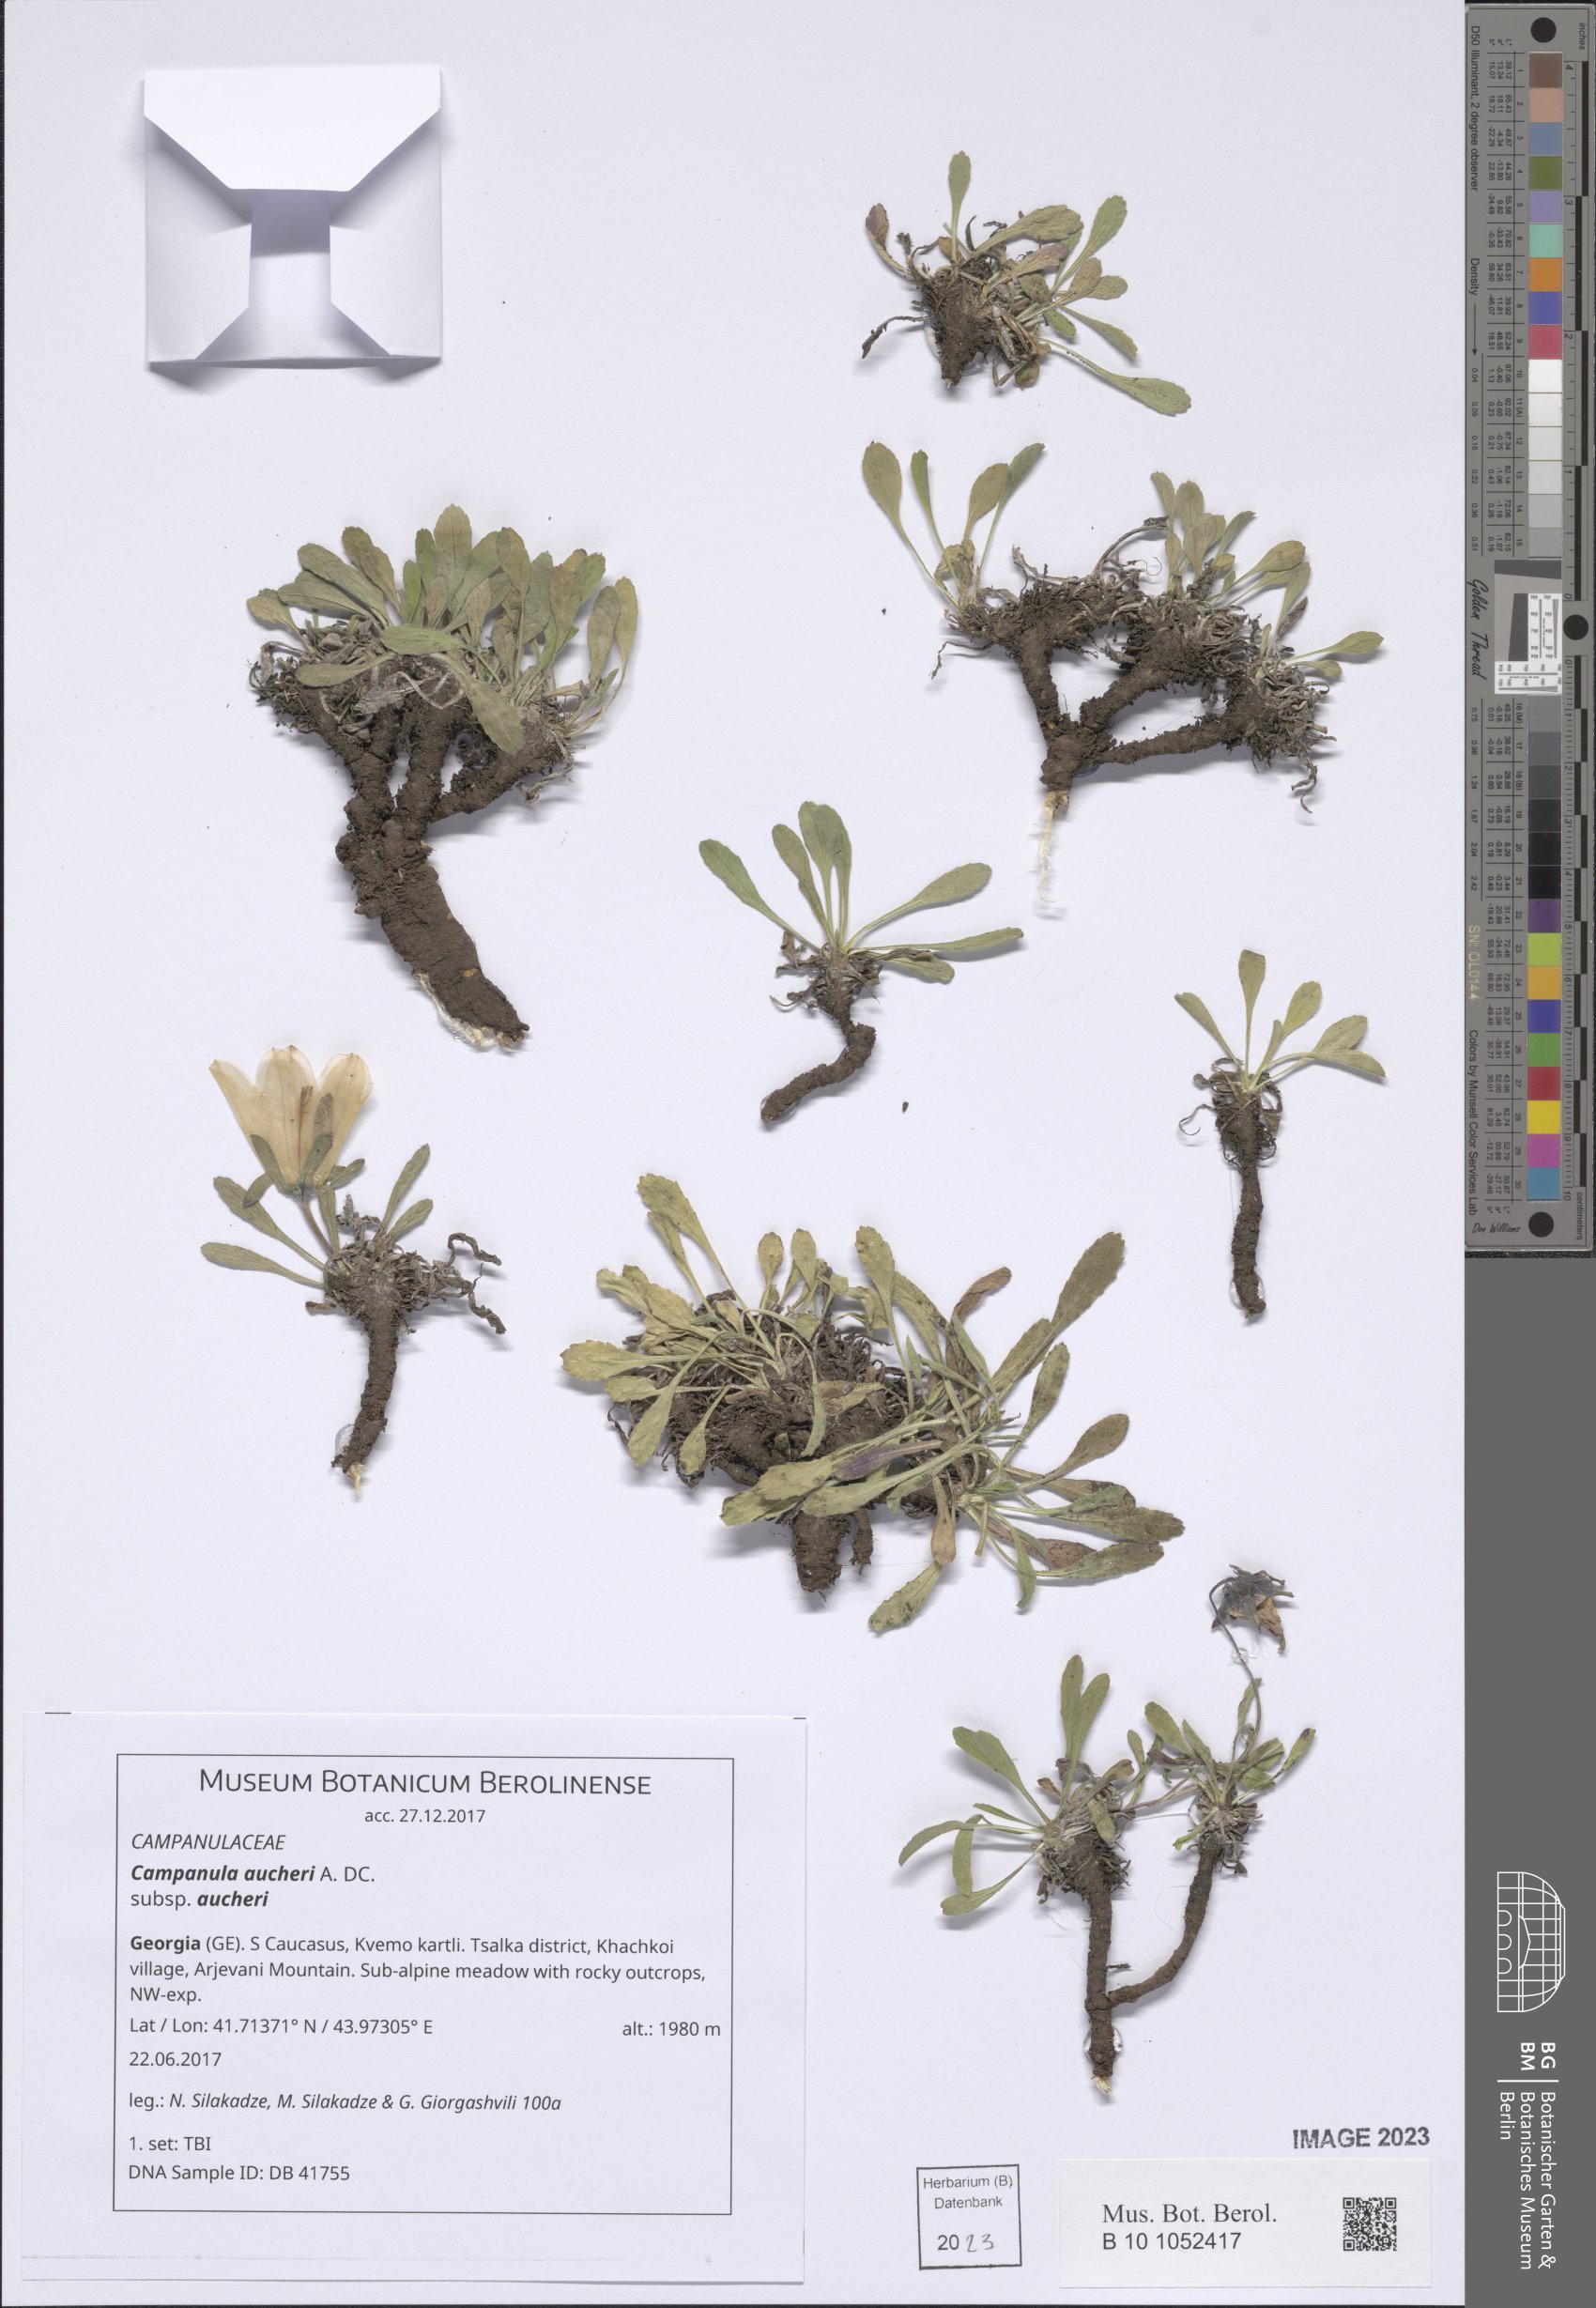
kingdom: Plantae
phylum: Tracheophyta
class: Magnoliopsida
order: Asterales
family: Campanulaceae
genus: Campanula
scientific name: Campanula saxifraga
